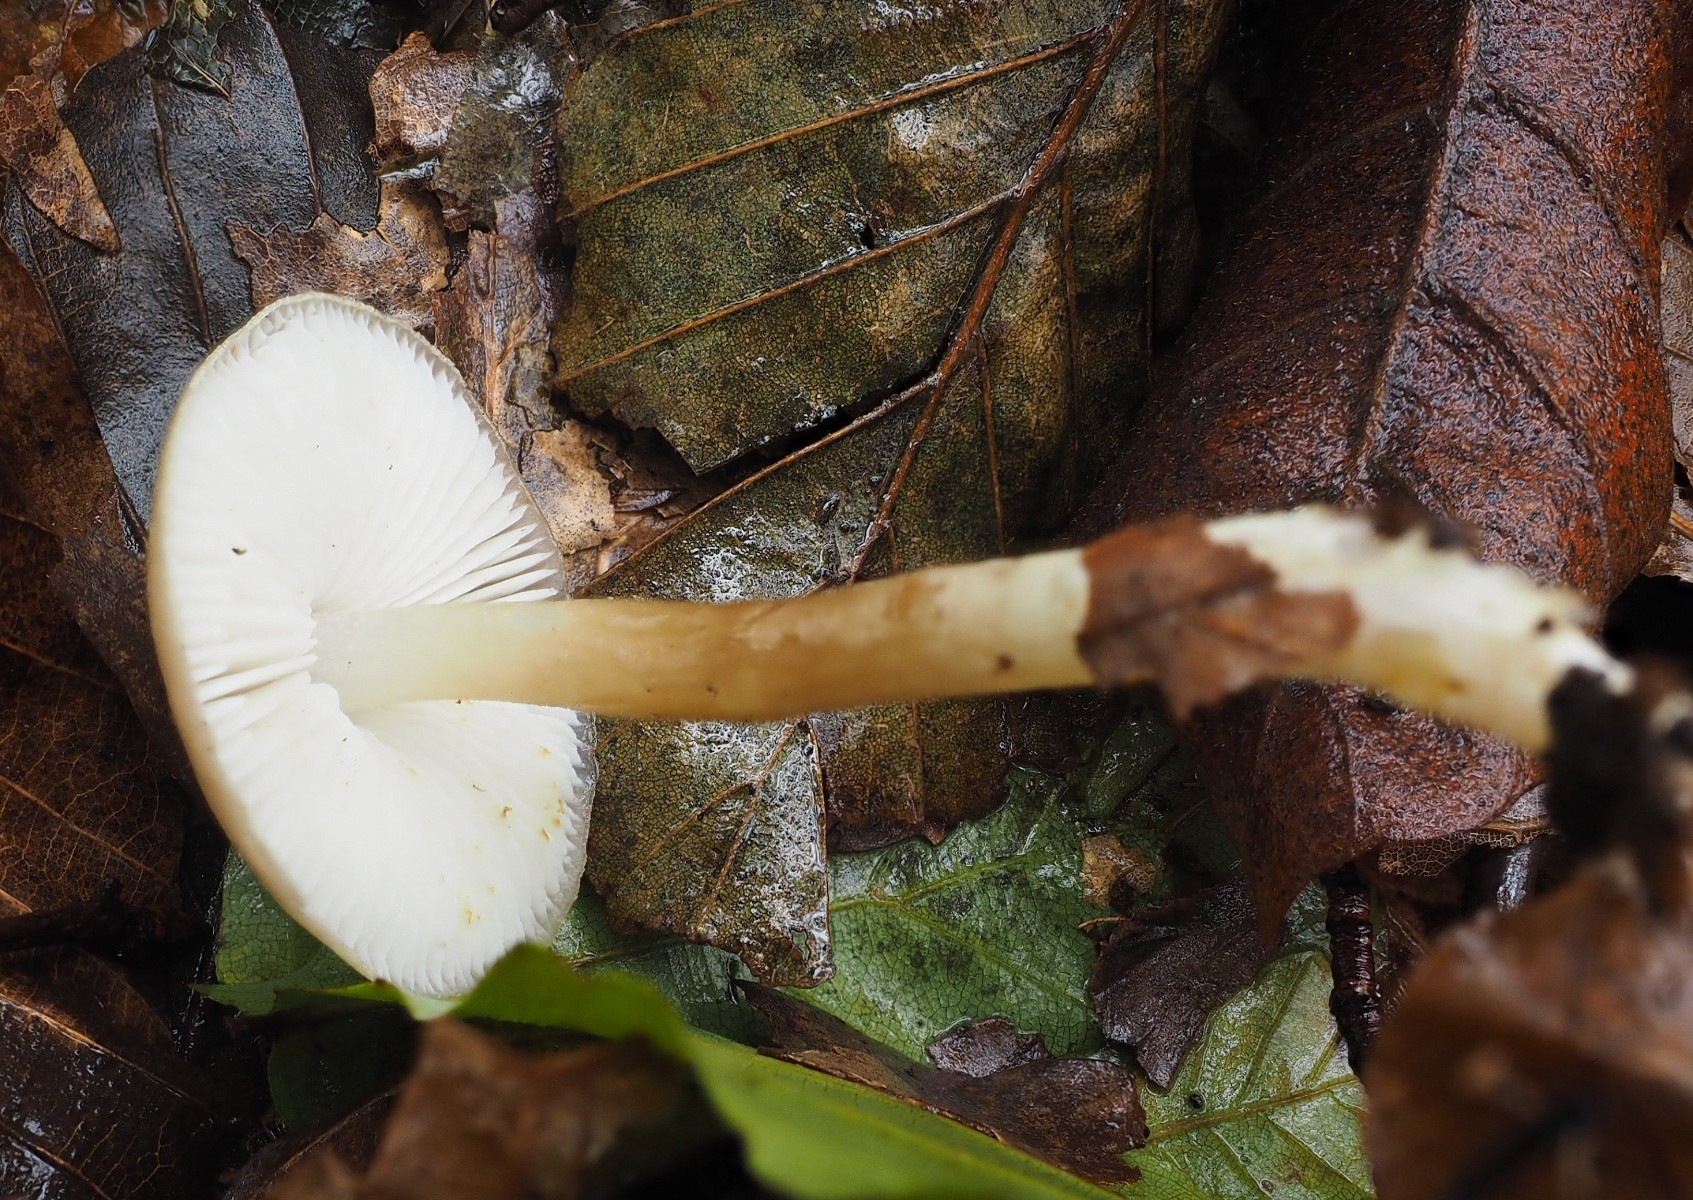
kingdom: Fungi
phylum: Basidiomycota
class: Agaricomycetes
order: Agaricales
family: Porotheleaceae
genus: Hydropodia
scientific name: Hydropodia subalpina
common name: vår-fnugfod
